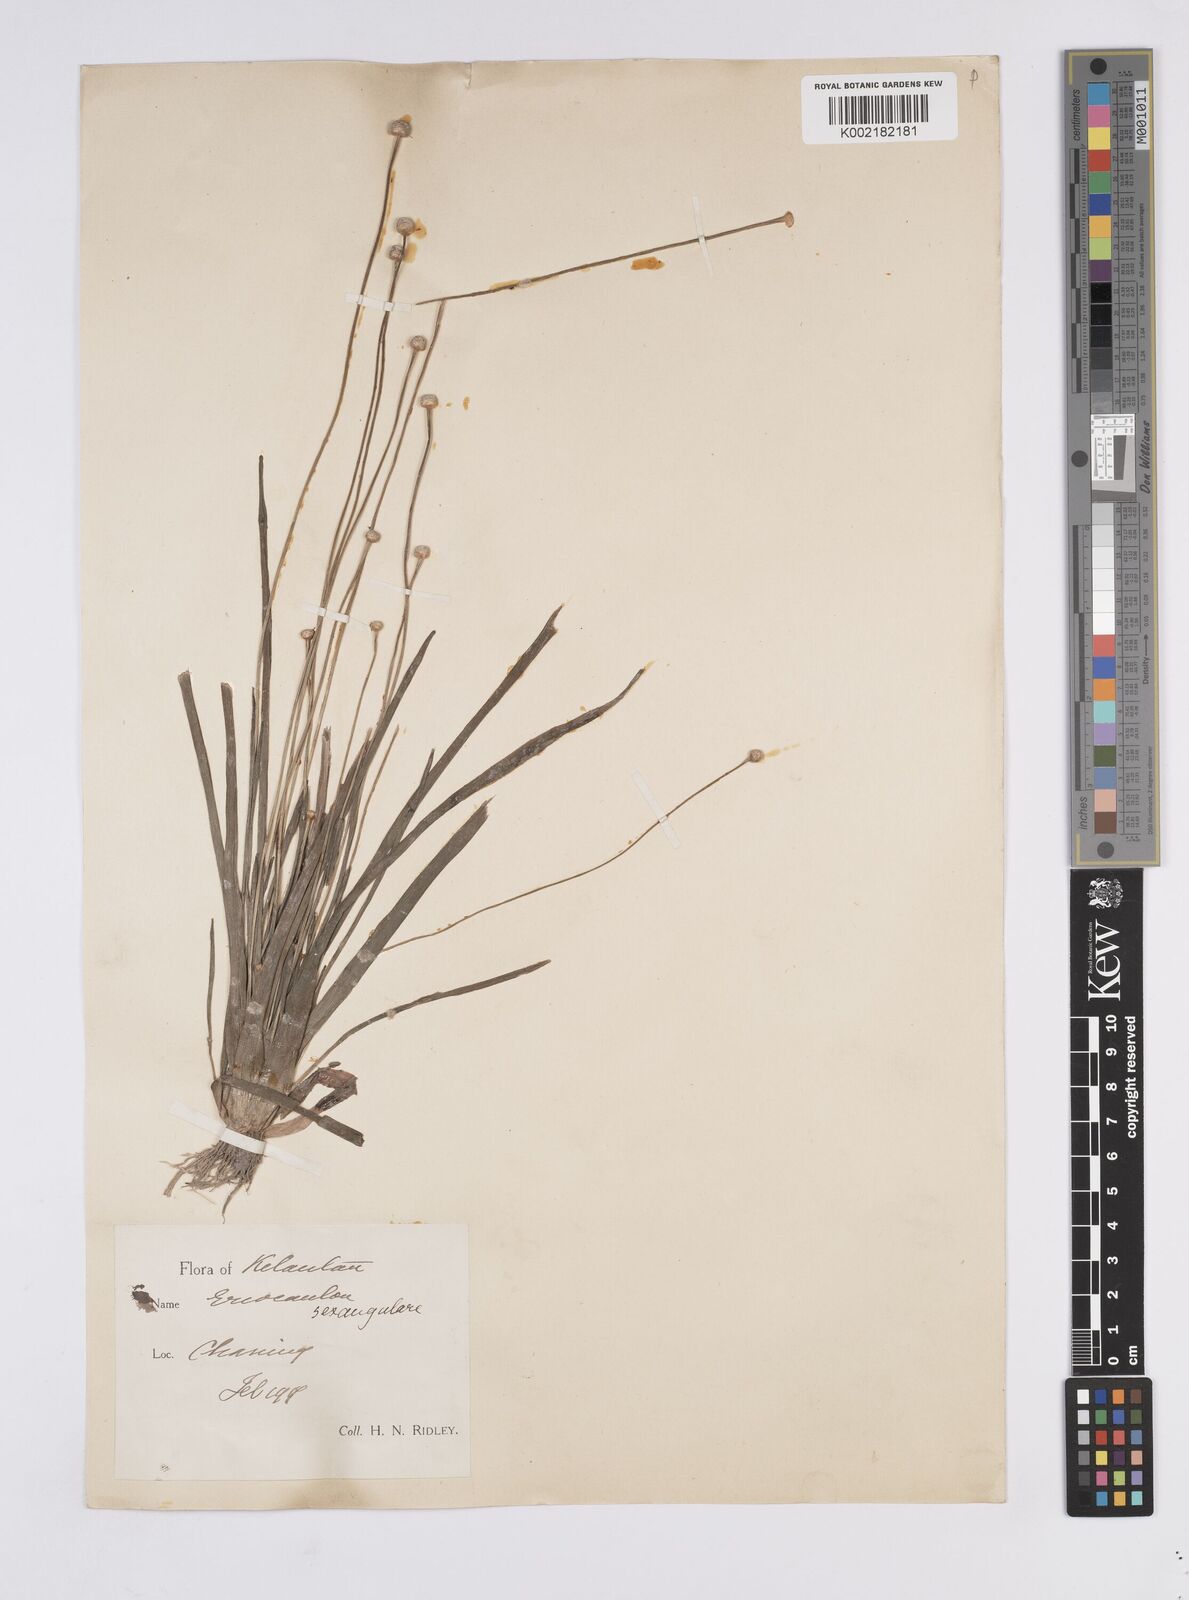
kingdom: Plantae
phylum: Tracheophyta
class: Liliopsida
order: Poales
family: Eriocaulaceae
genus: Eriocaulon
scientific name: Eriocaulon sexangulare
